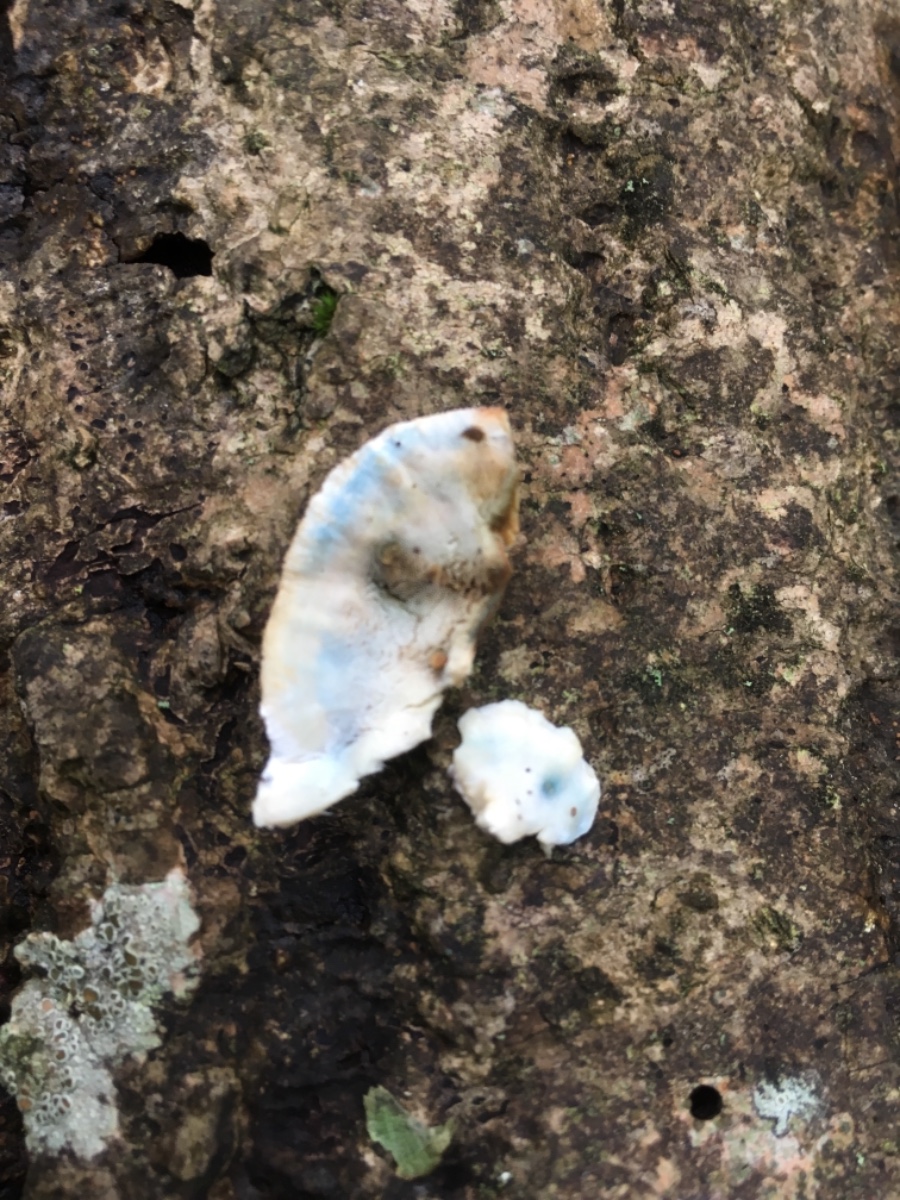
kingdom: Fungi
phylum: Basidiomycota
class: Agaricomycetes
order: Polyporales
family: Incrustoporiaceae
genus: Skeletocutis
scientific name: Skeletocutis nemoralis
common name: stor krystalporesvamp
